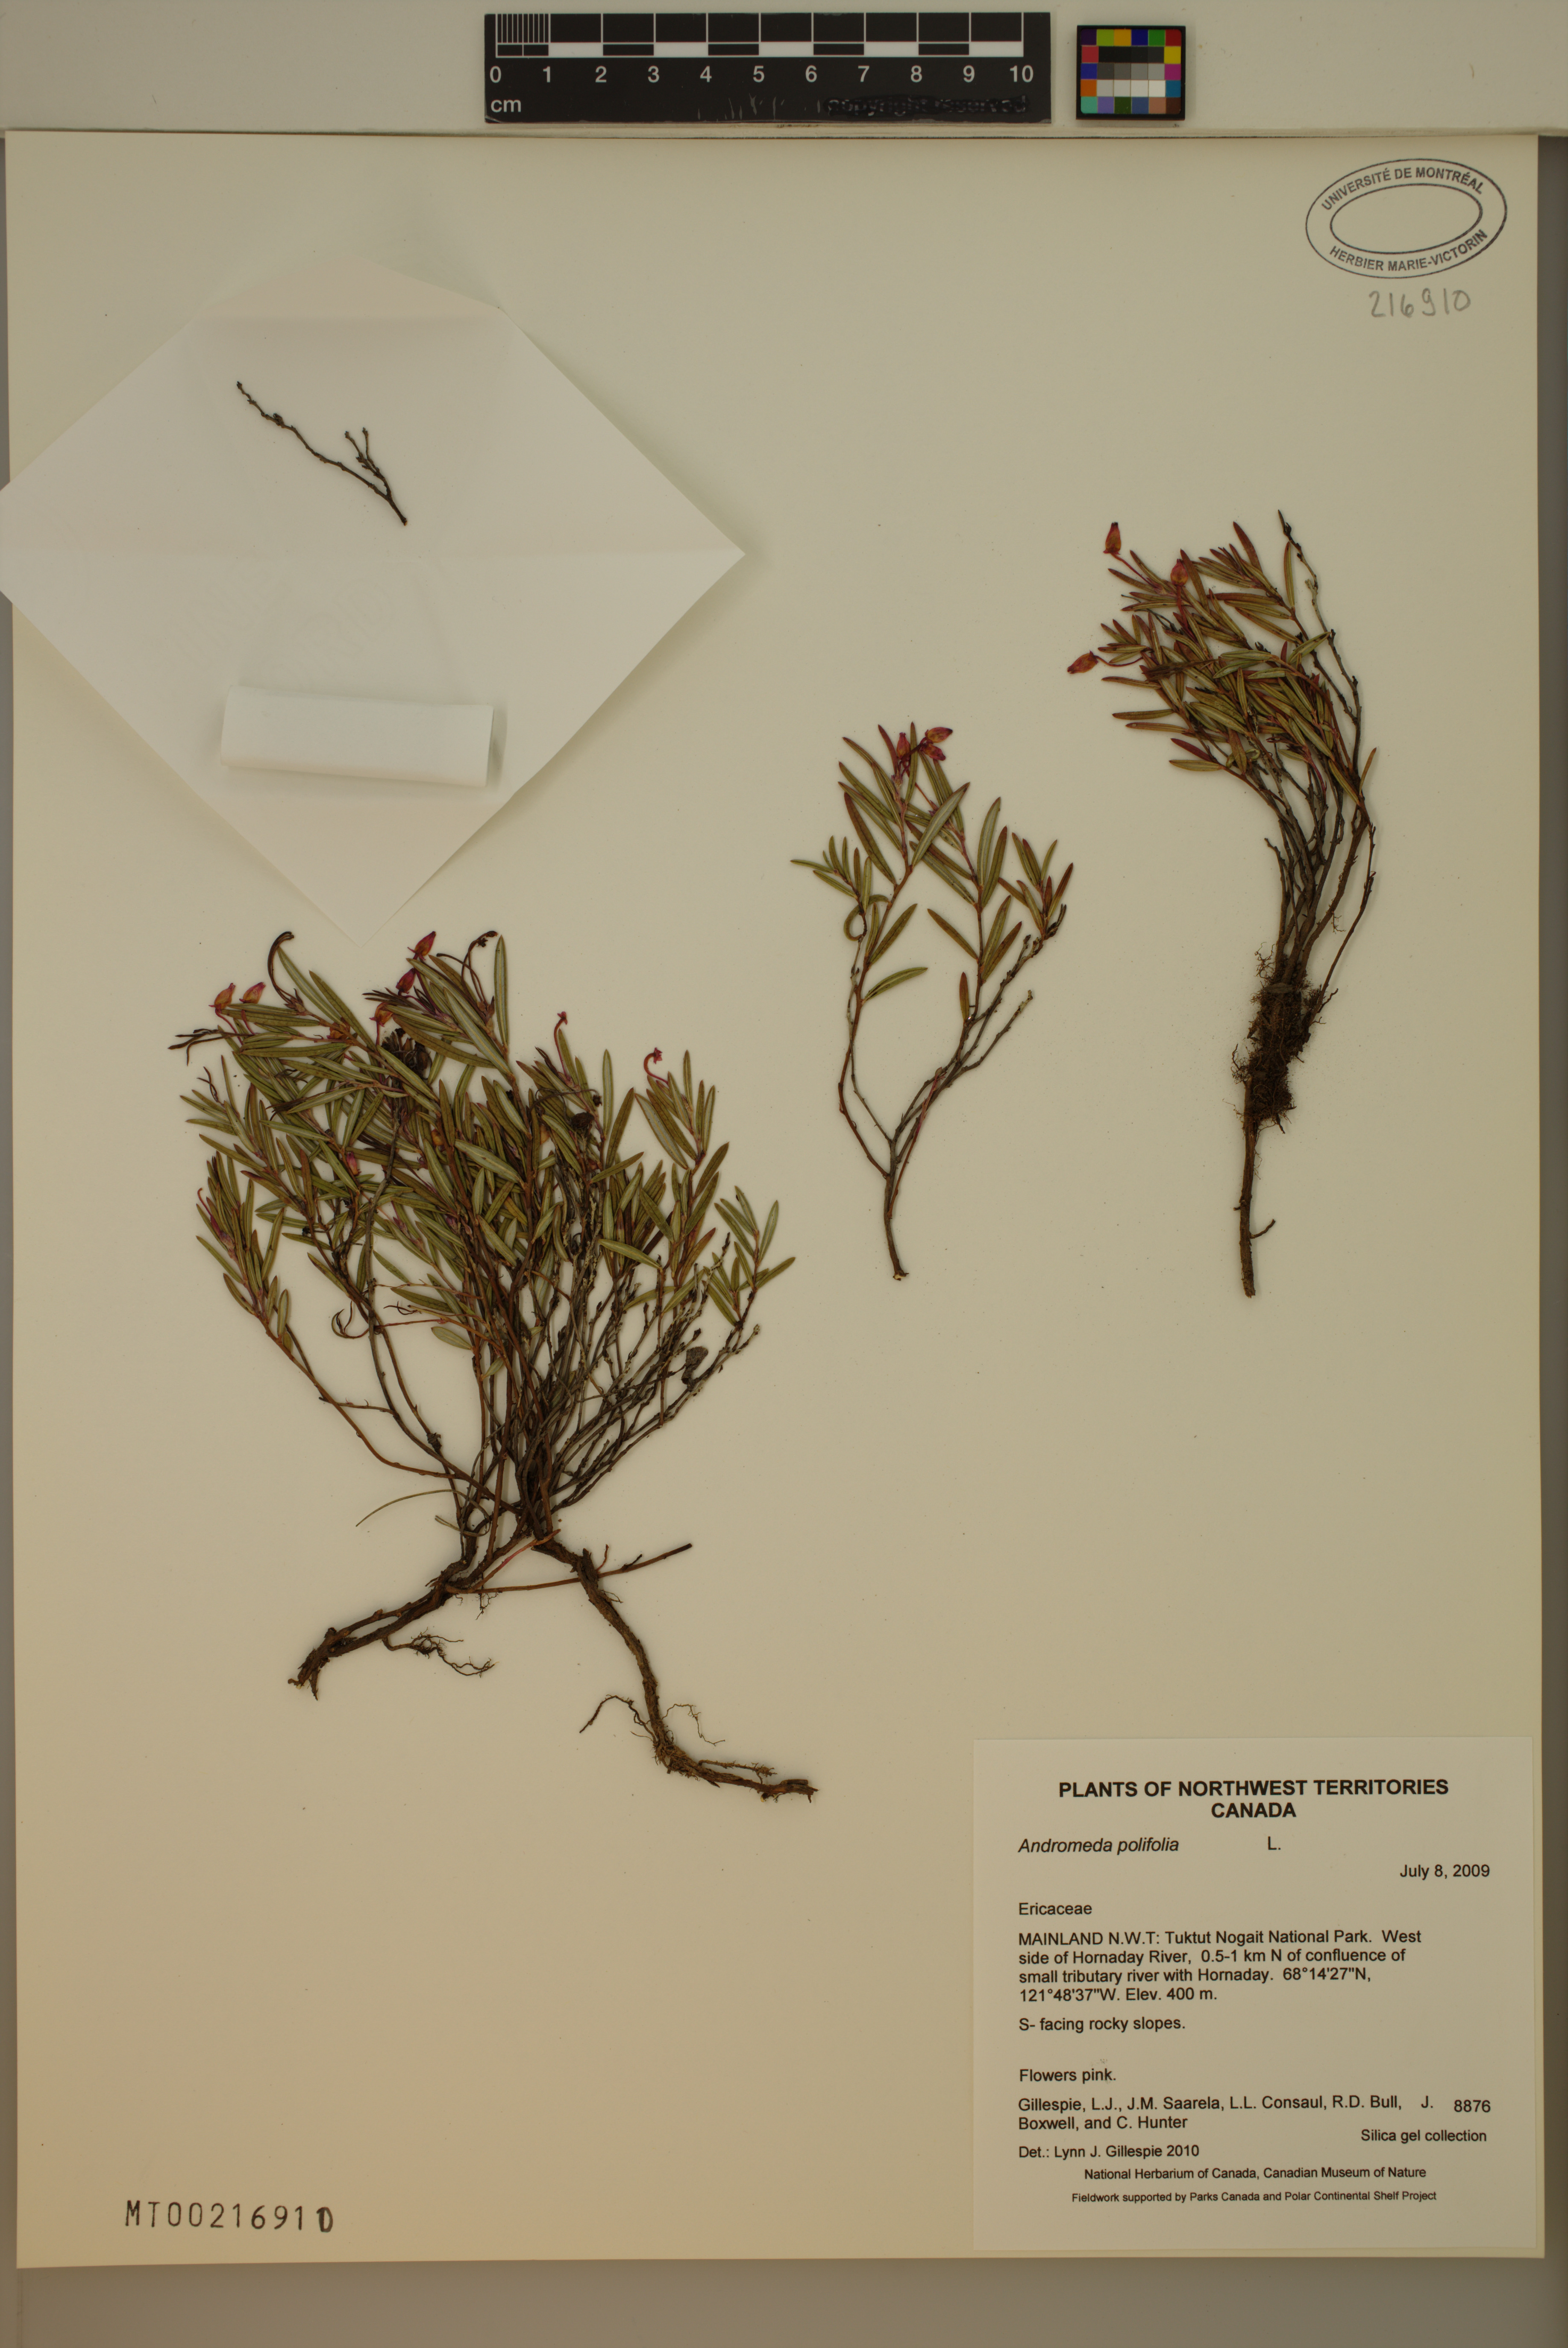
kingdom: Plantae
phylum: Tracheophyta
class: Magnoliopsida
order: Ericales
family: Ericaceae
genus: Andromeda
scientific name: Andromeda polifolia
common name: Bog-rosemary
